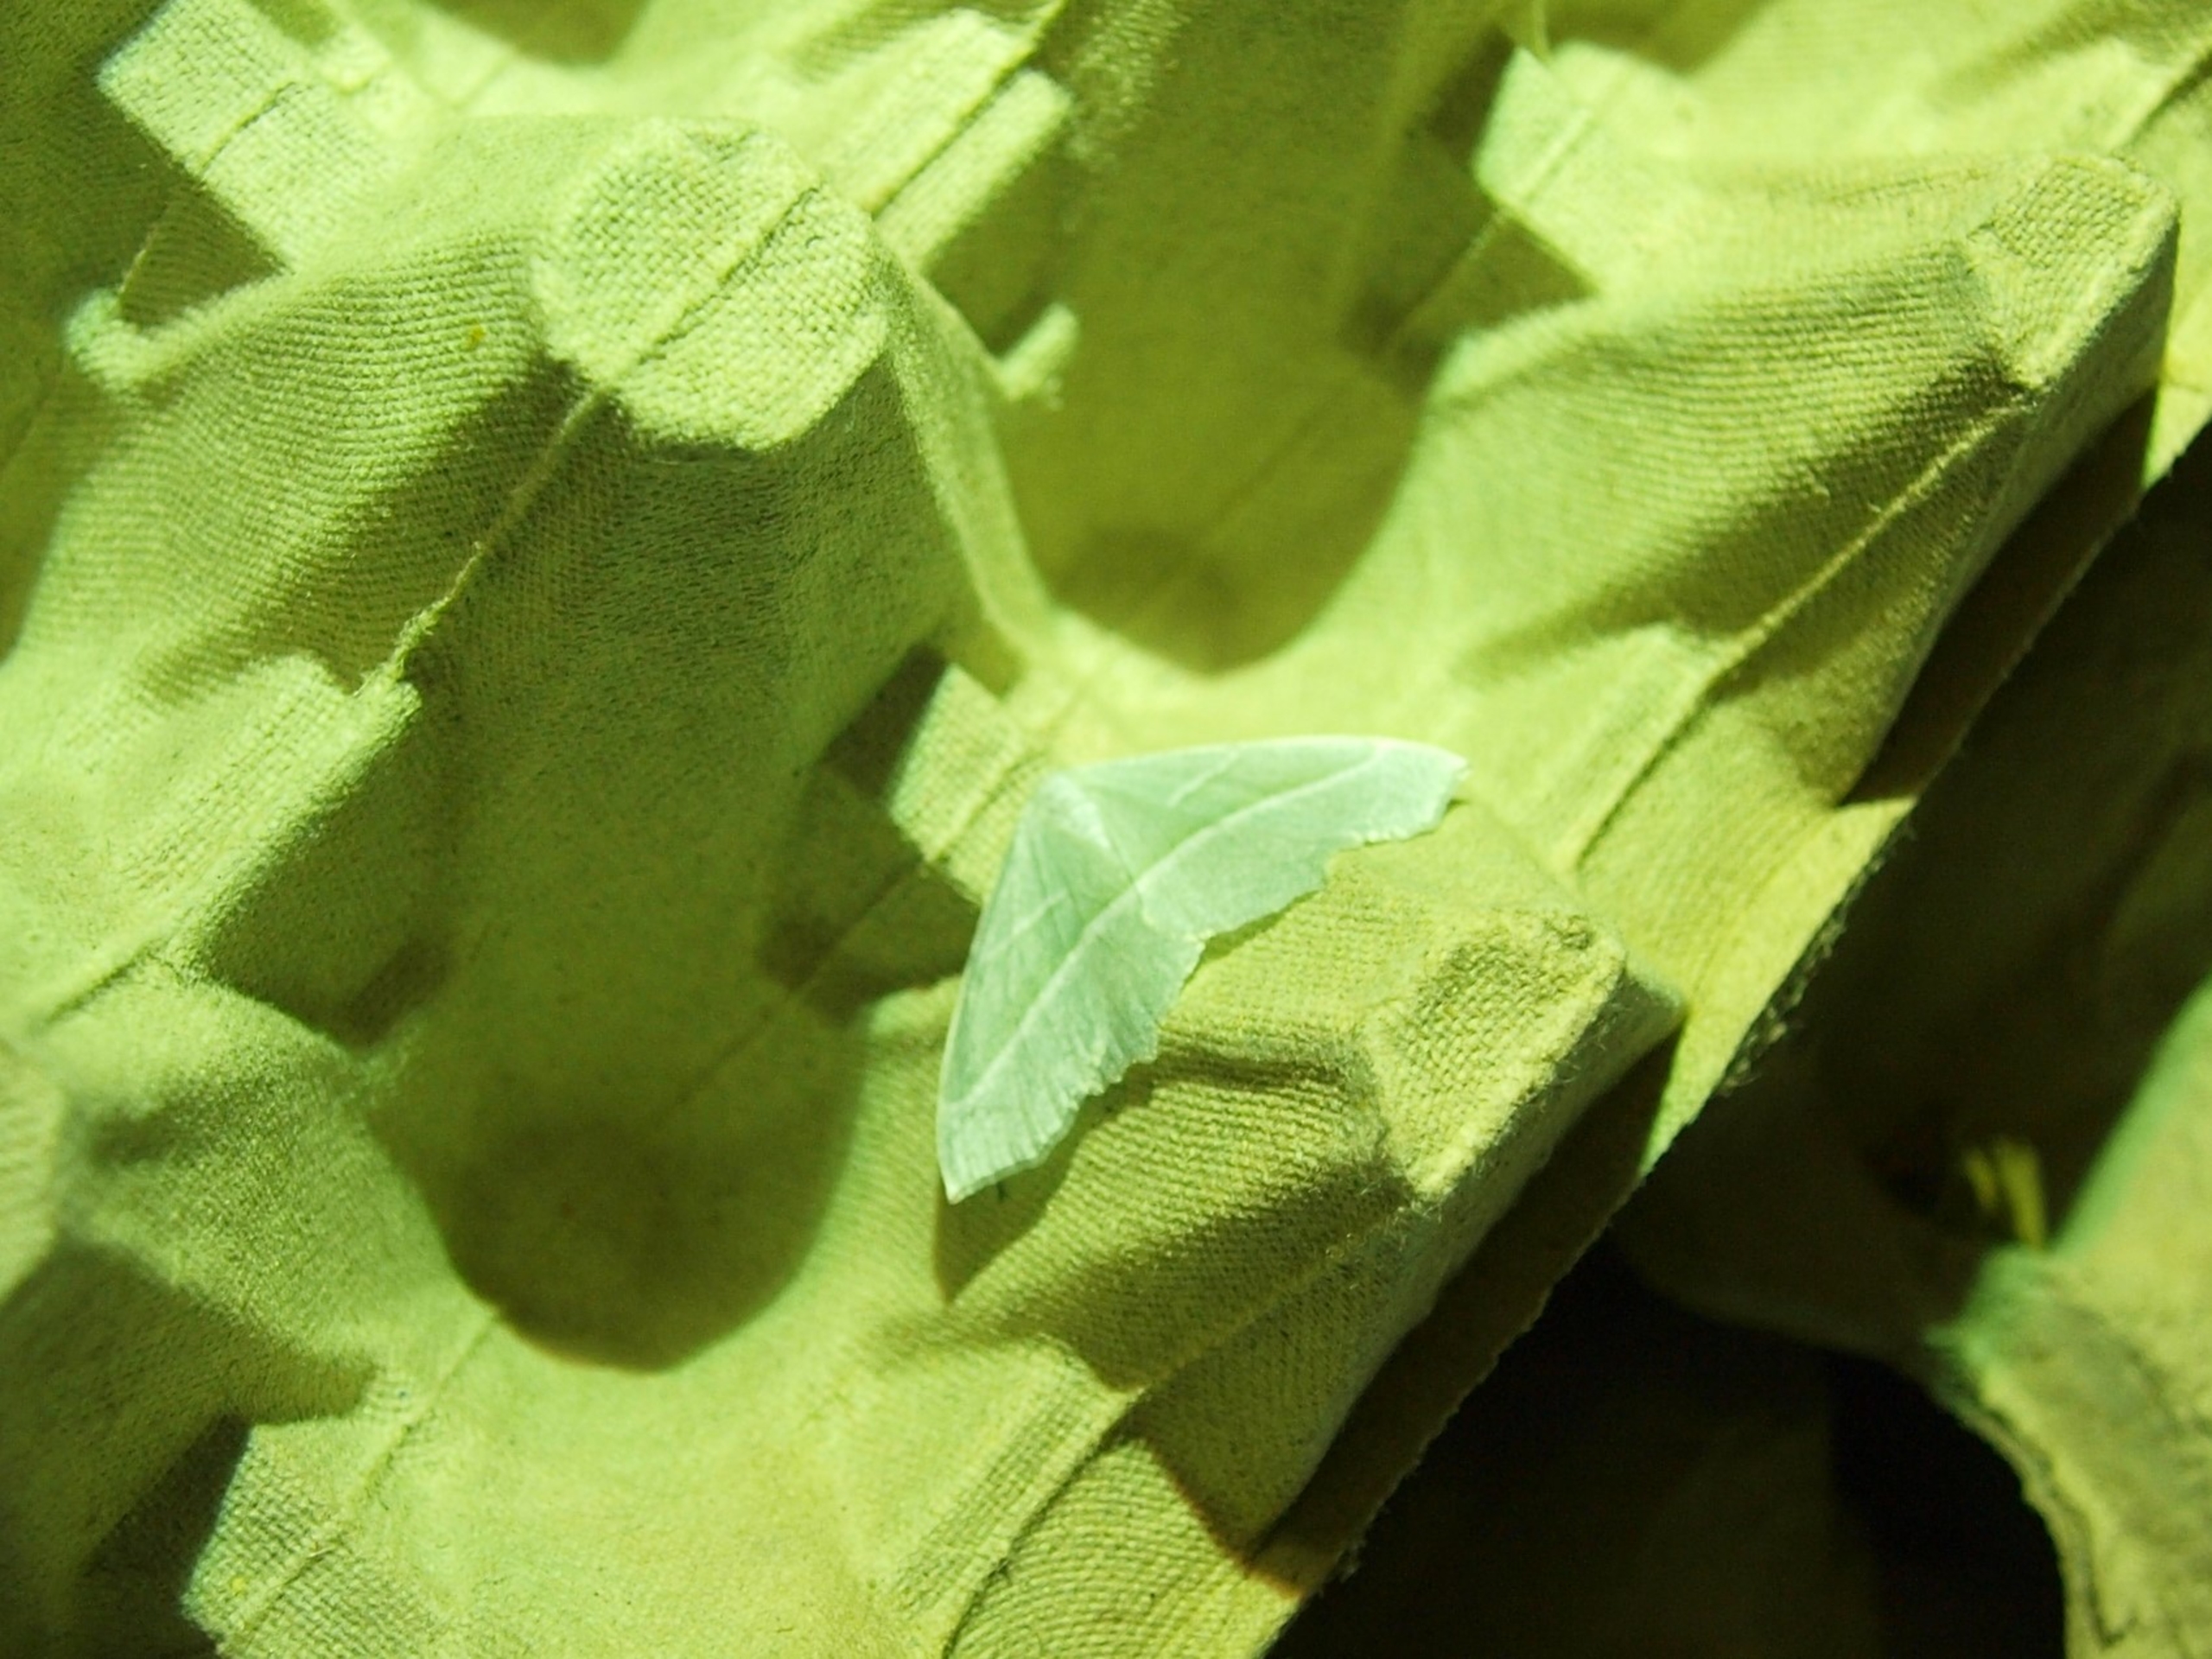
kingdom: Animalia
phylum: Arthropoda
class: Insecta
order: Lepidoptera
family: Geometridae
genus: Campaea
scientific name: Campaea margaritaria
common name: Perlemåler
